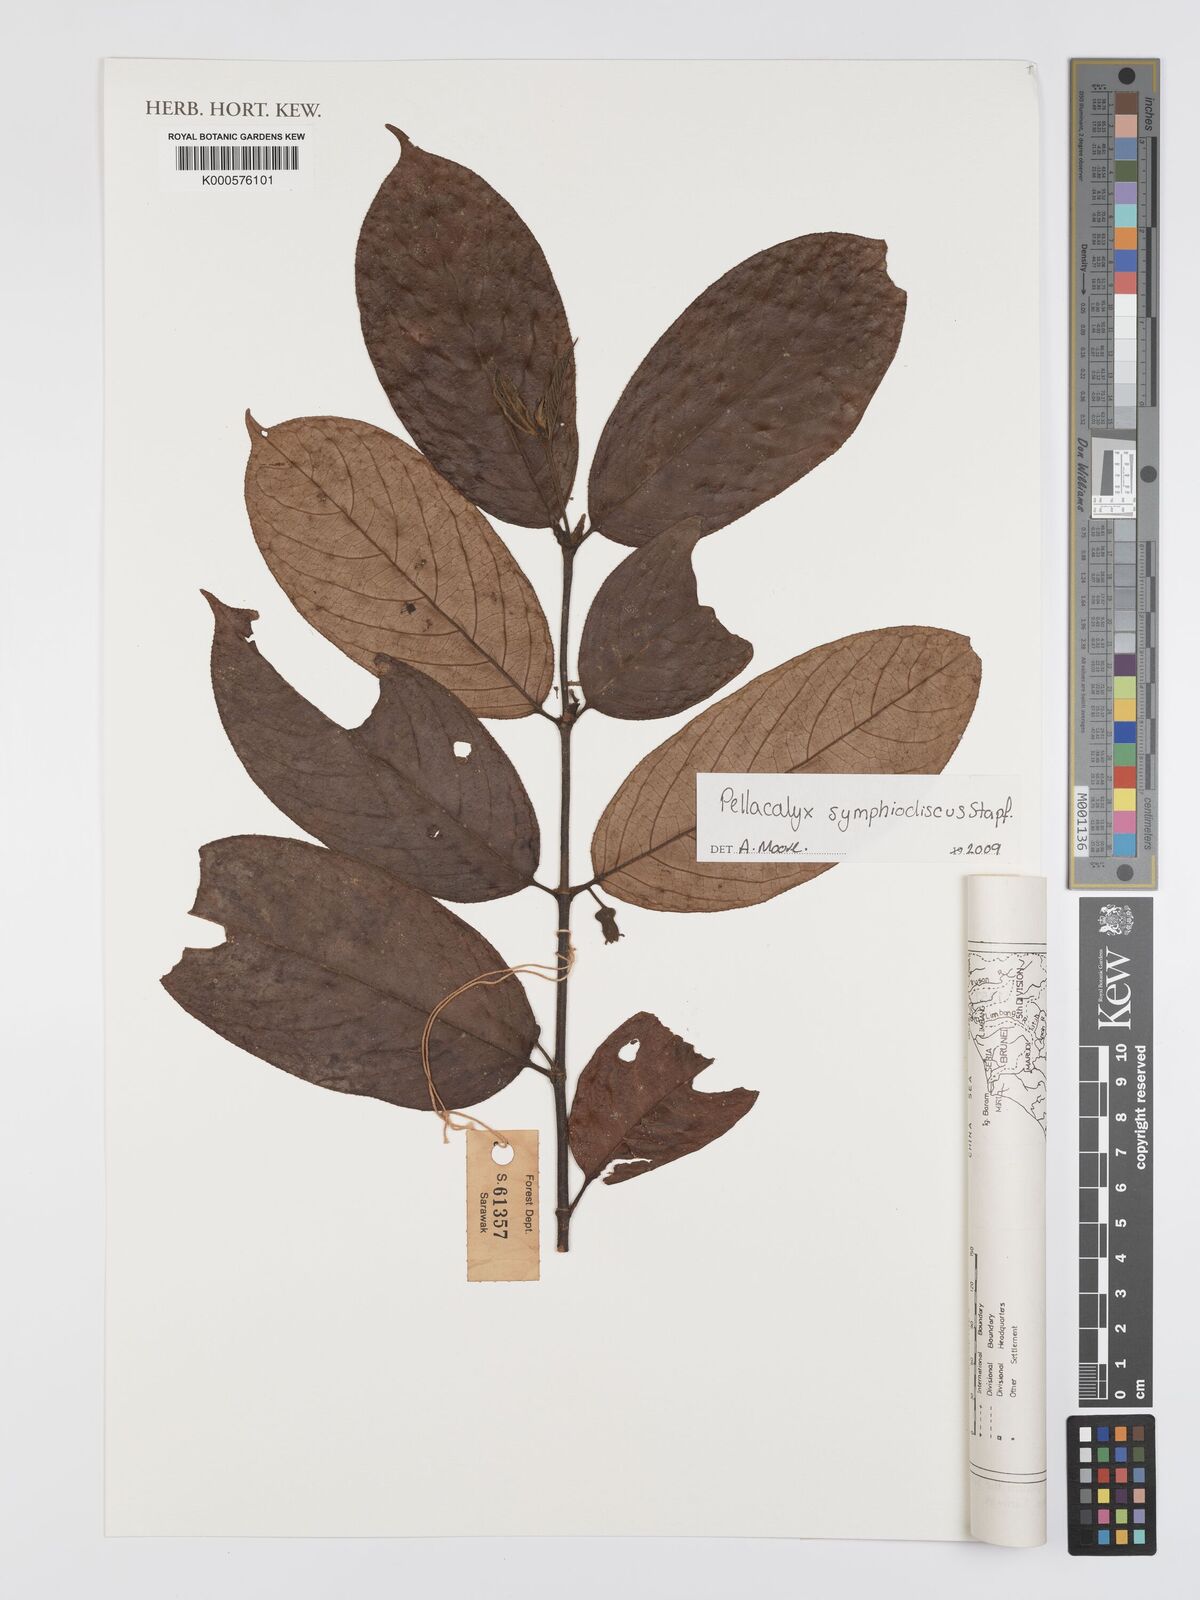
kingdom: Plantae
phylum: Tracheophyta
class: Magnoliopsida
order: Malpighiales
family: Rhizophoraceae
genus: Pellacalyx
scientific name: Pellacalyx
